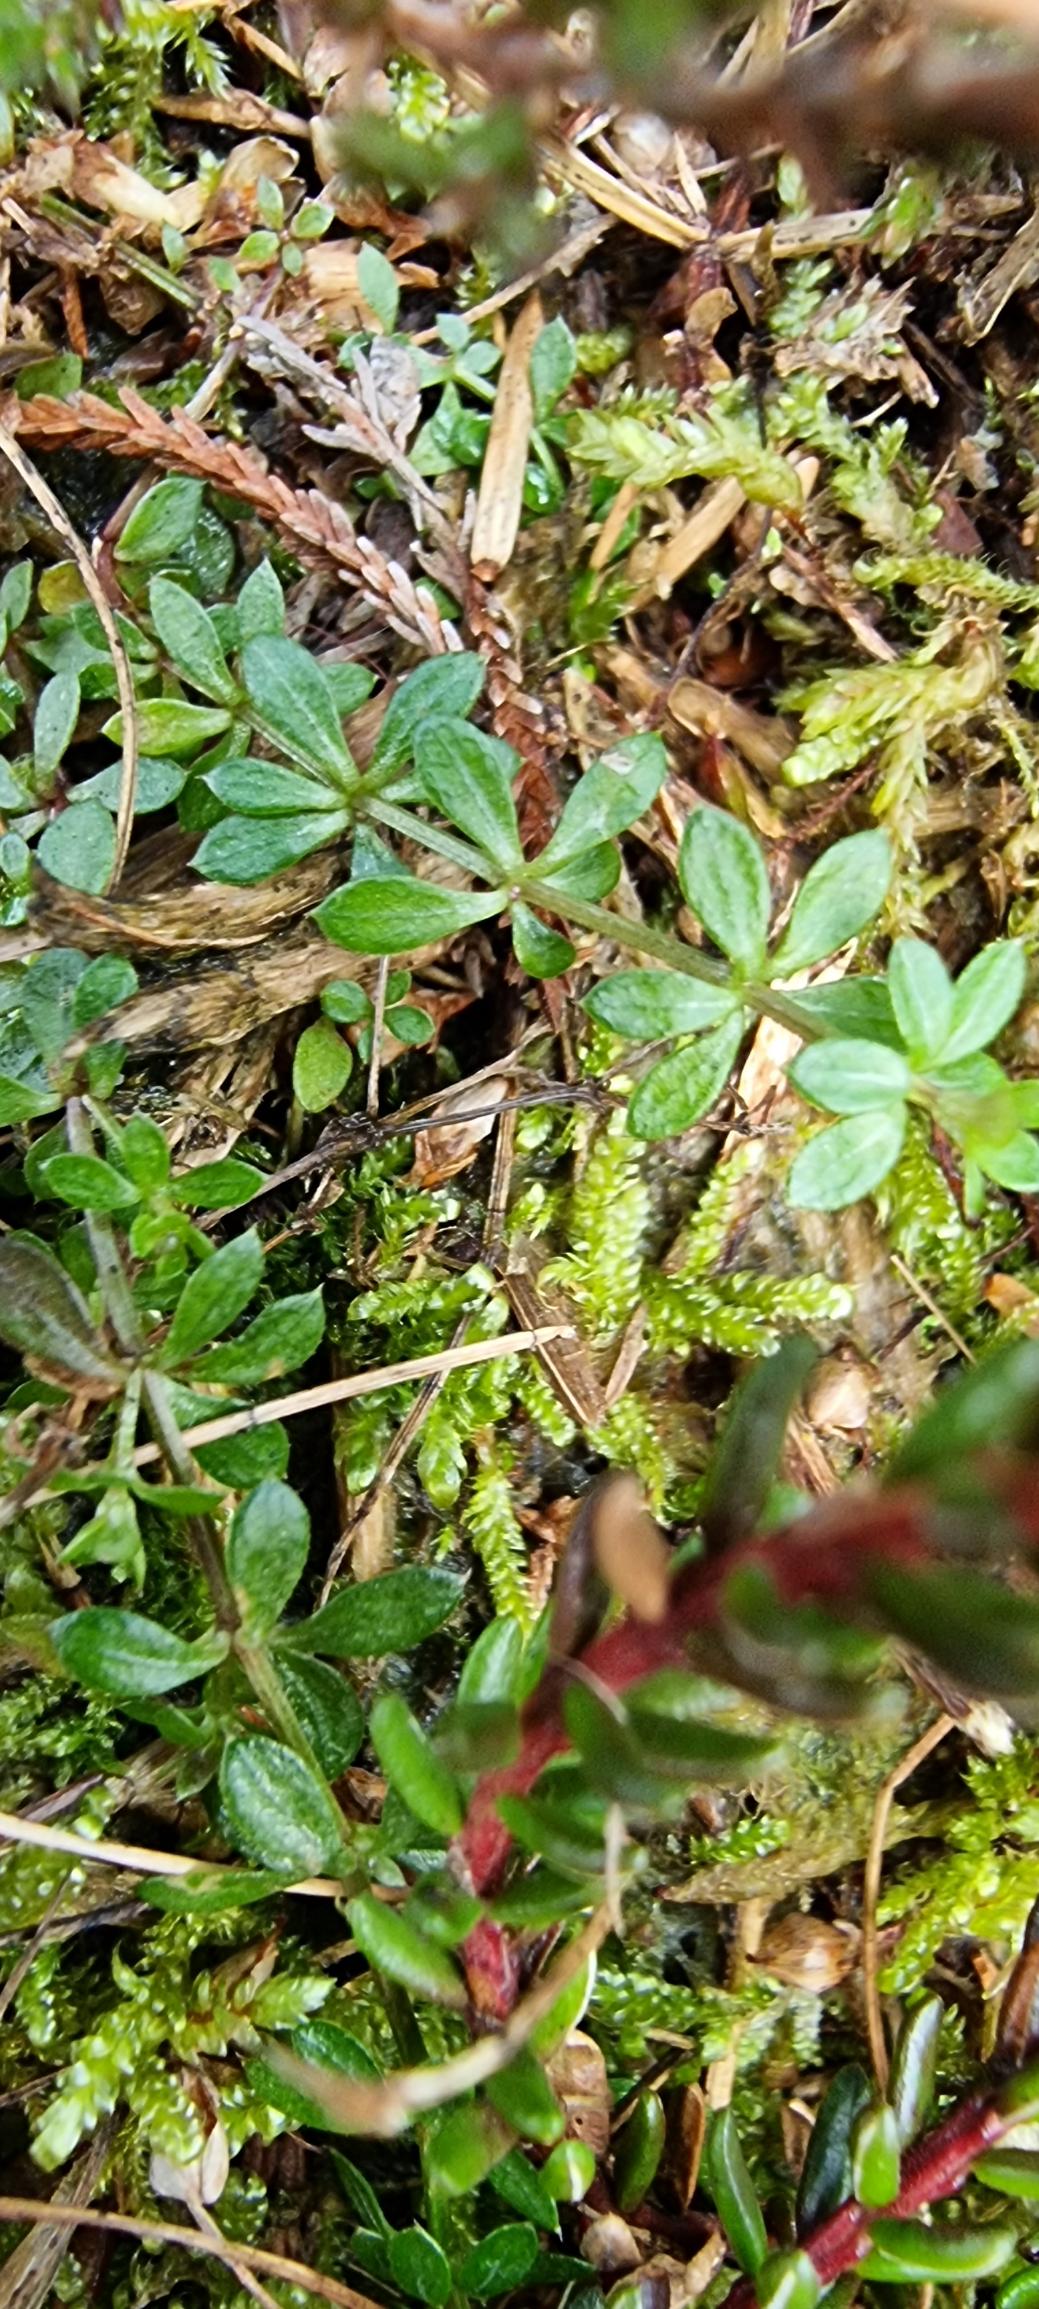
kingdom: Plantae
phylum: Tracheophyta
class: Magnoliopsida
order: Gentianales
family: Rubiaceae
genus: Galium
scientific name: Galium saxatile
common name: Lyng-snerre
